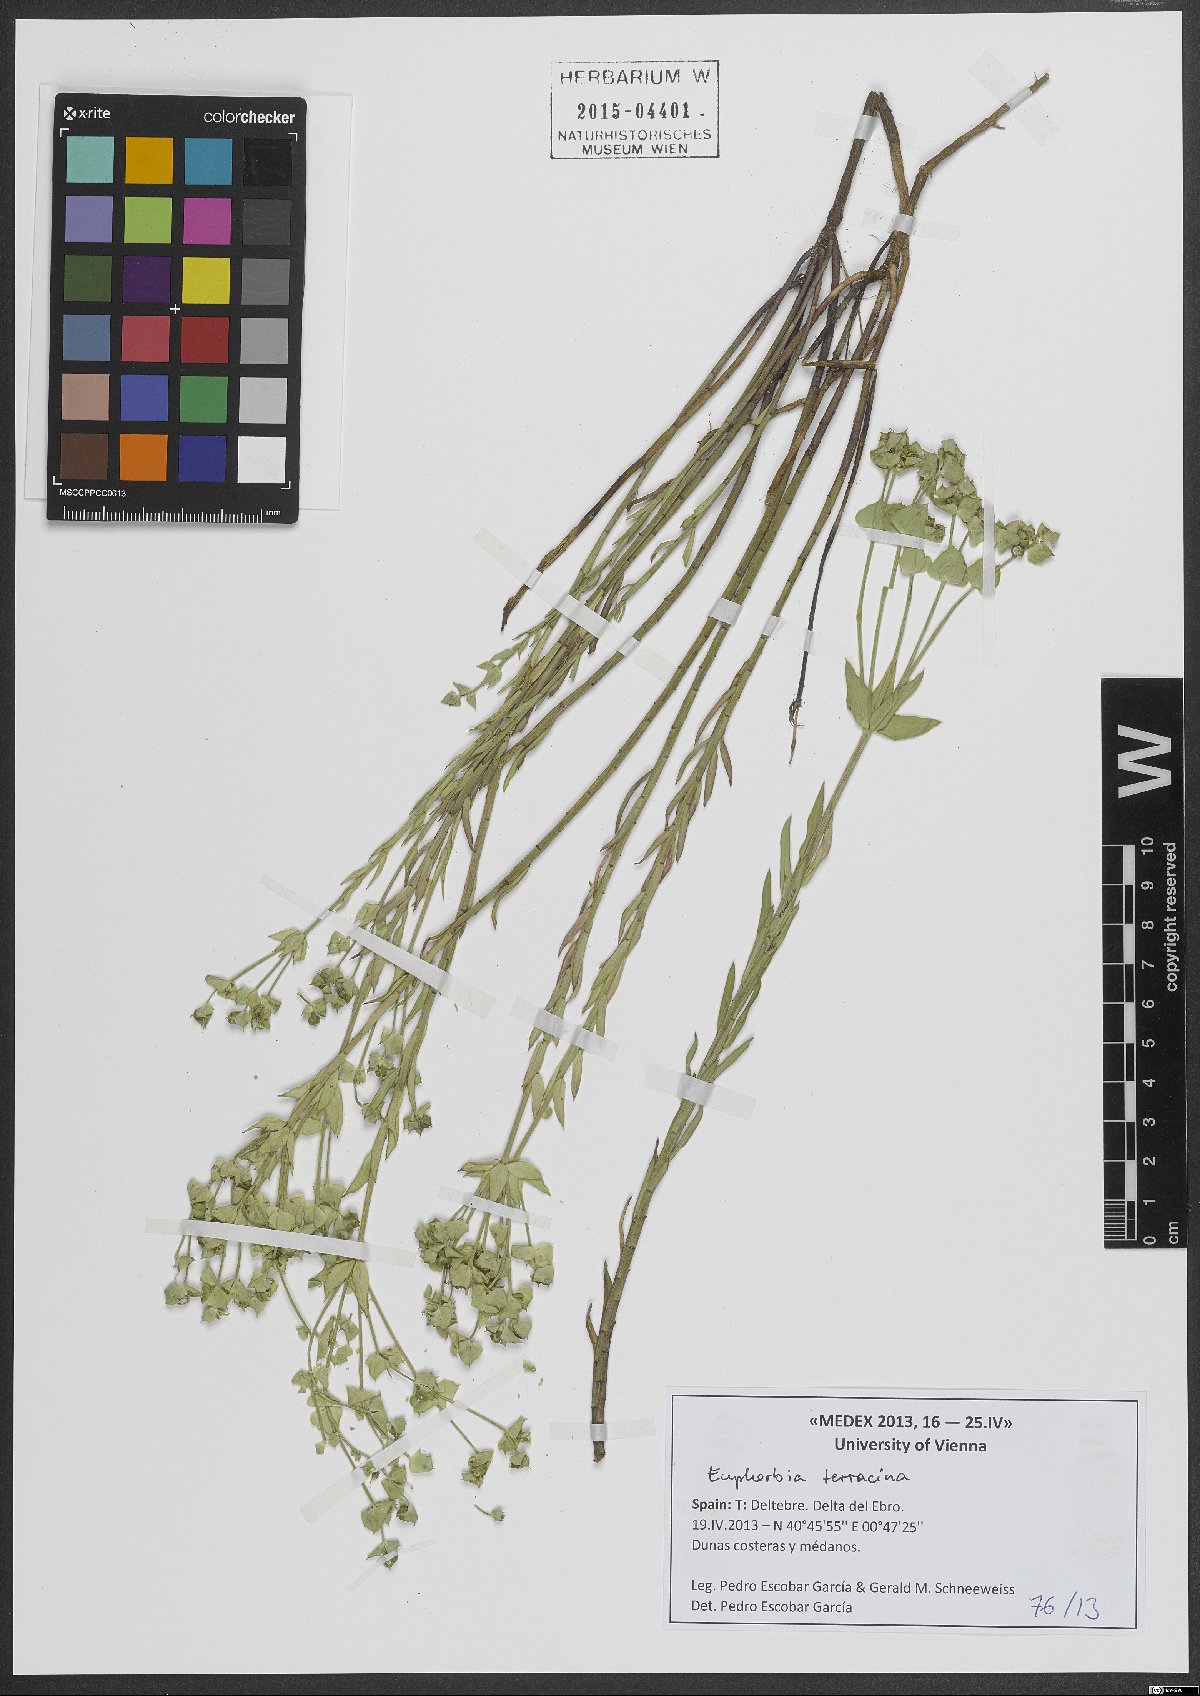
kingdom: Plantae
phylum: Tracheophyta
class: Magnoliopsida
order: Malpighiales
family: Euphorbiaceae
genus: Euphorbia
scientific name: Euphorbia terracina
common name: Geraldton carnation weed
